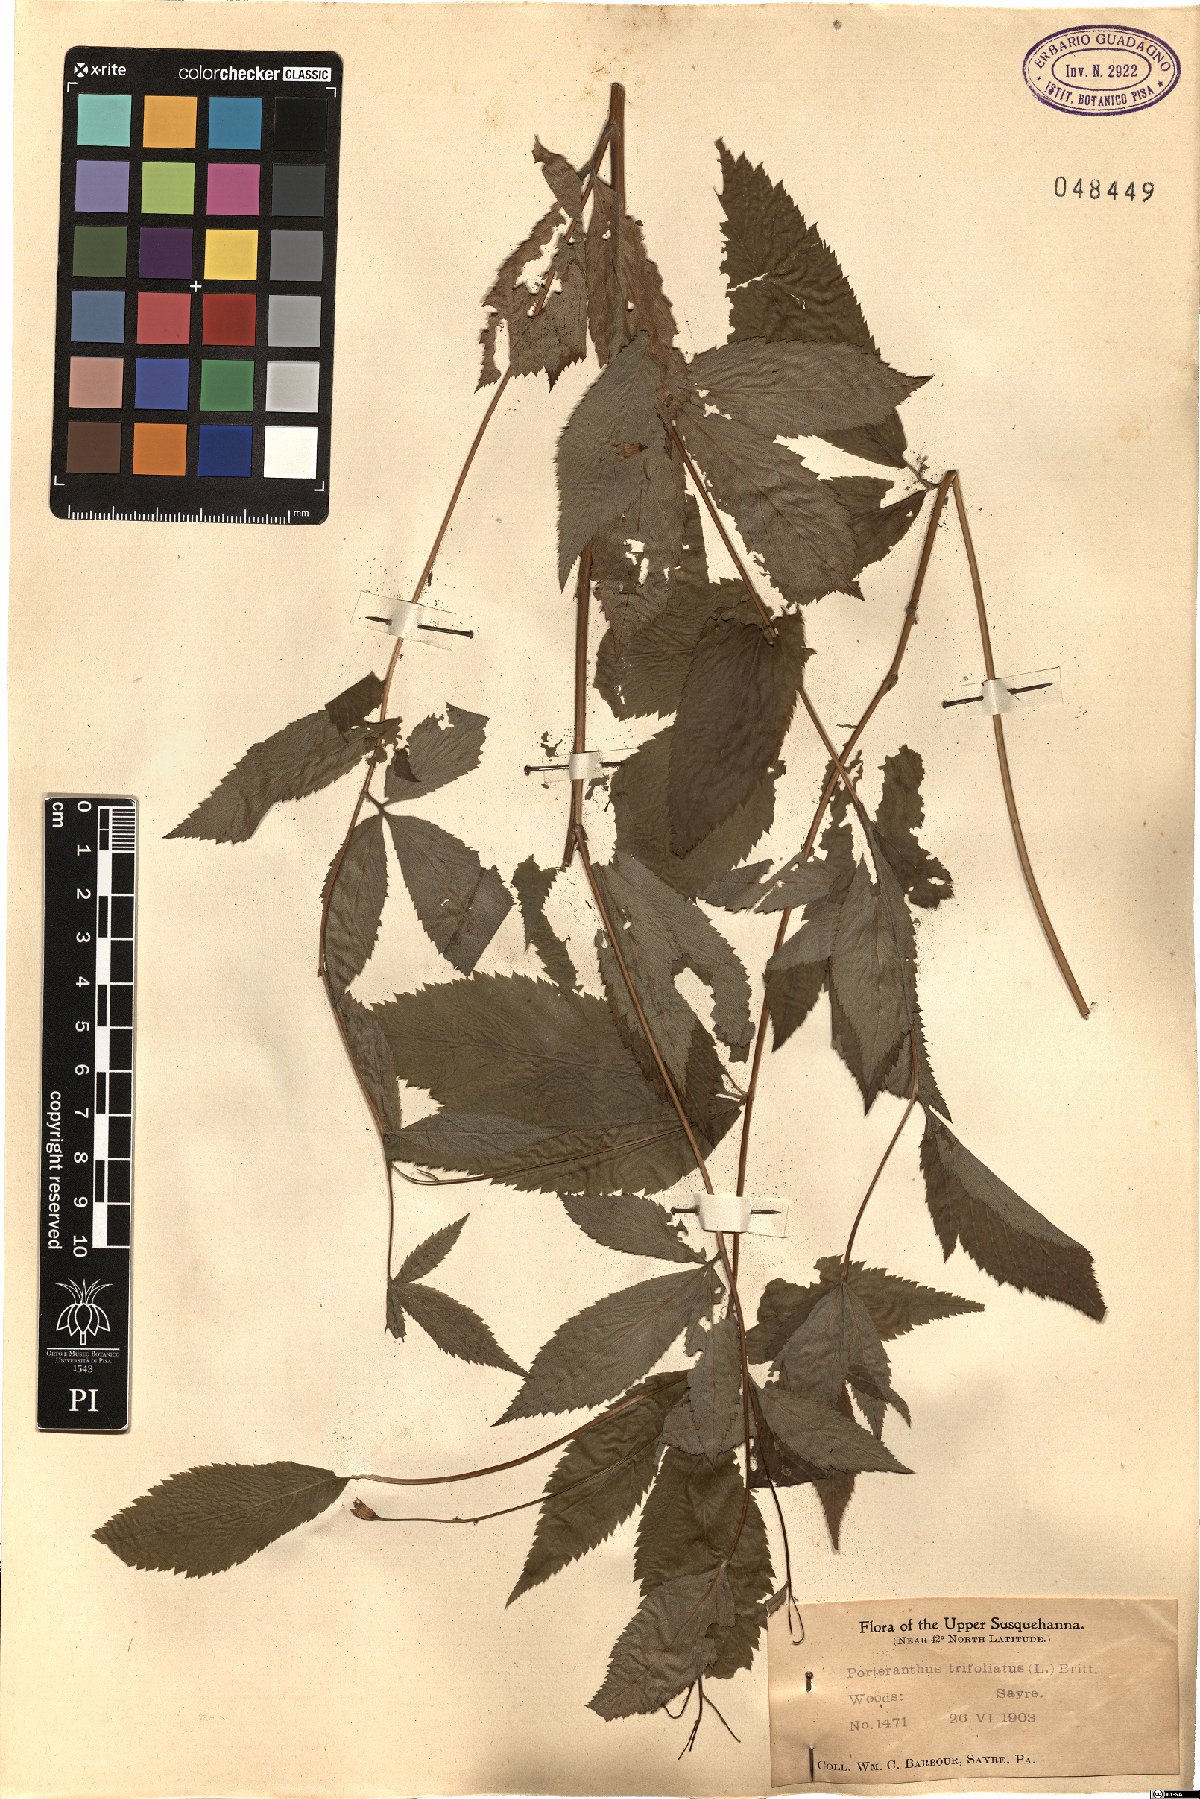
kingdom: Plantae
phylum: Tracheophyta
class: Magnoliopsida
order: Rosales
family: Rosaceae
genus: Gillenia
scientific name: Gillenia trifoliata
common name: Bowman's-root
